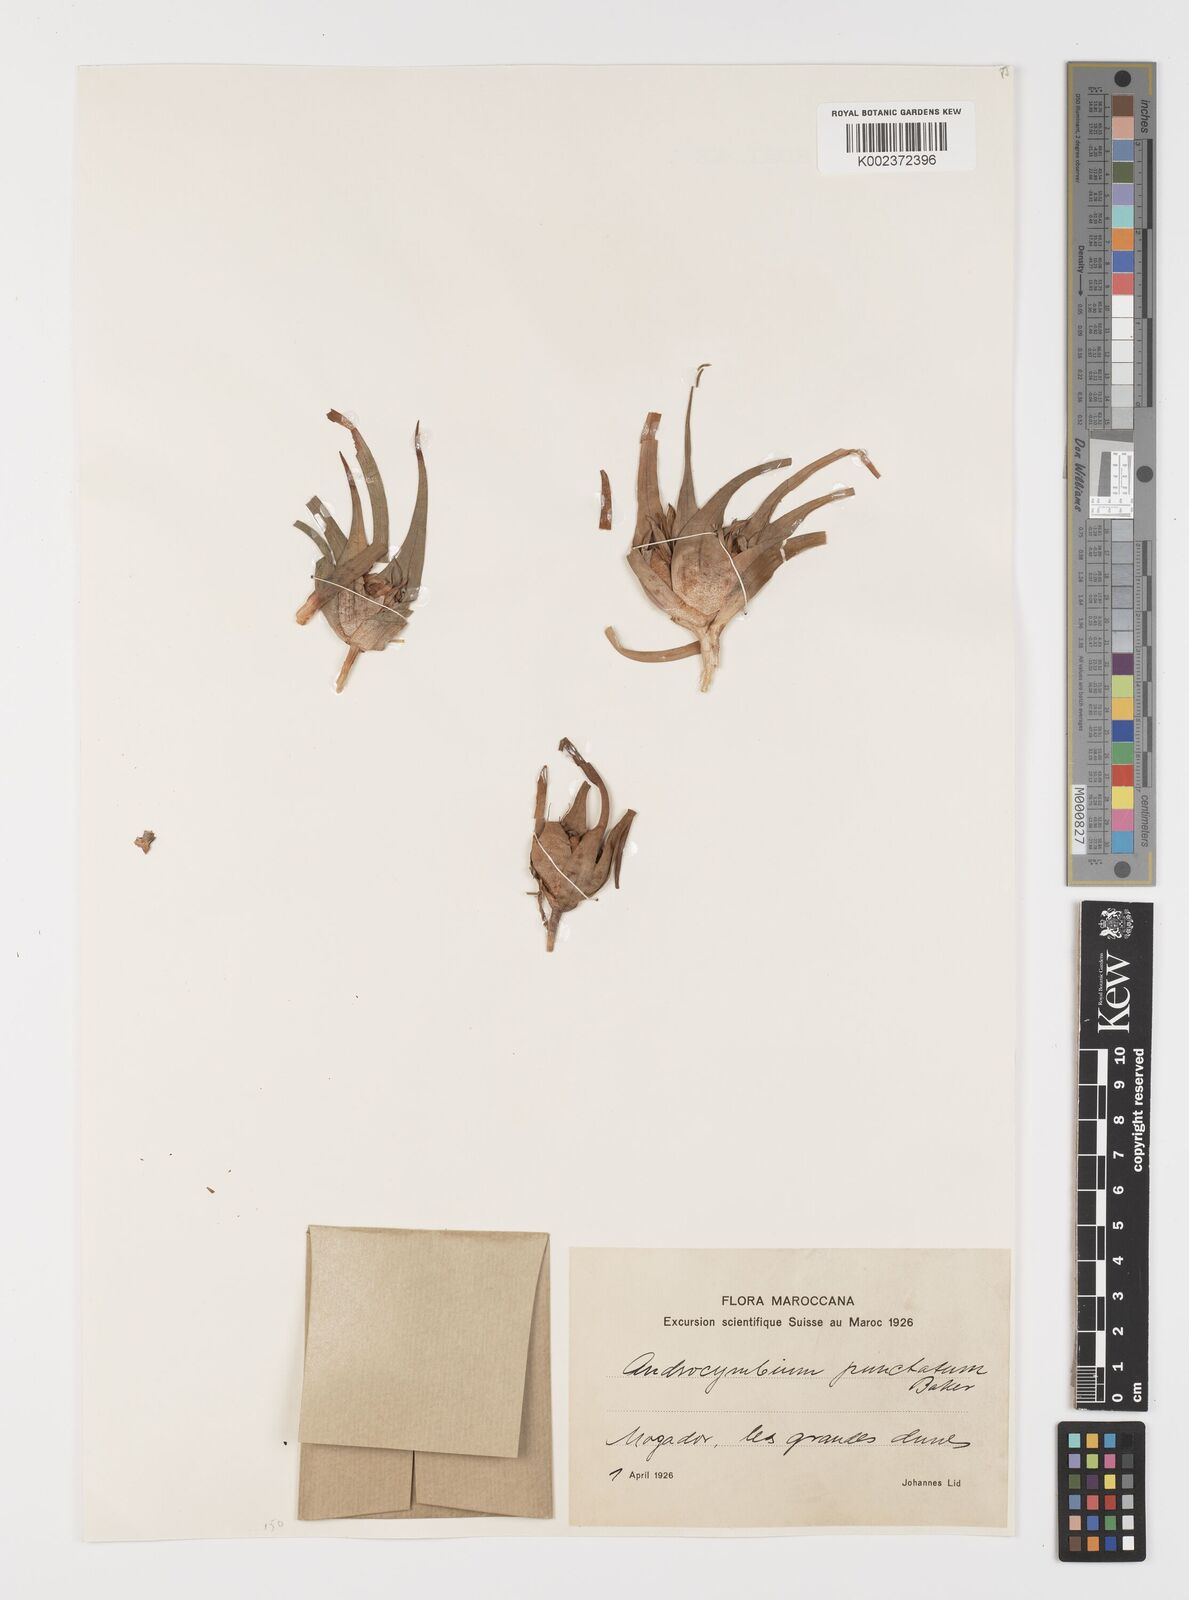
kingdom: Plantae
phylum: Tracheophyta
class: Liliopsida
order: Liliales
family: Colchicaceae
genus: Colchicum
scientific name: Colchicum gramineum
